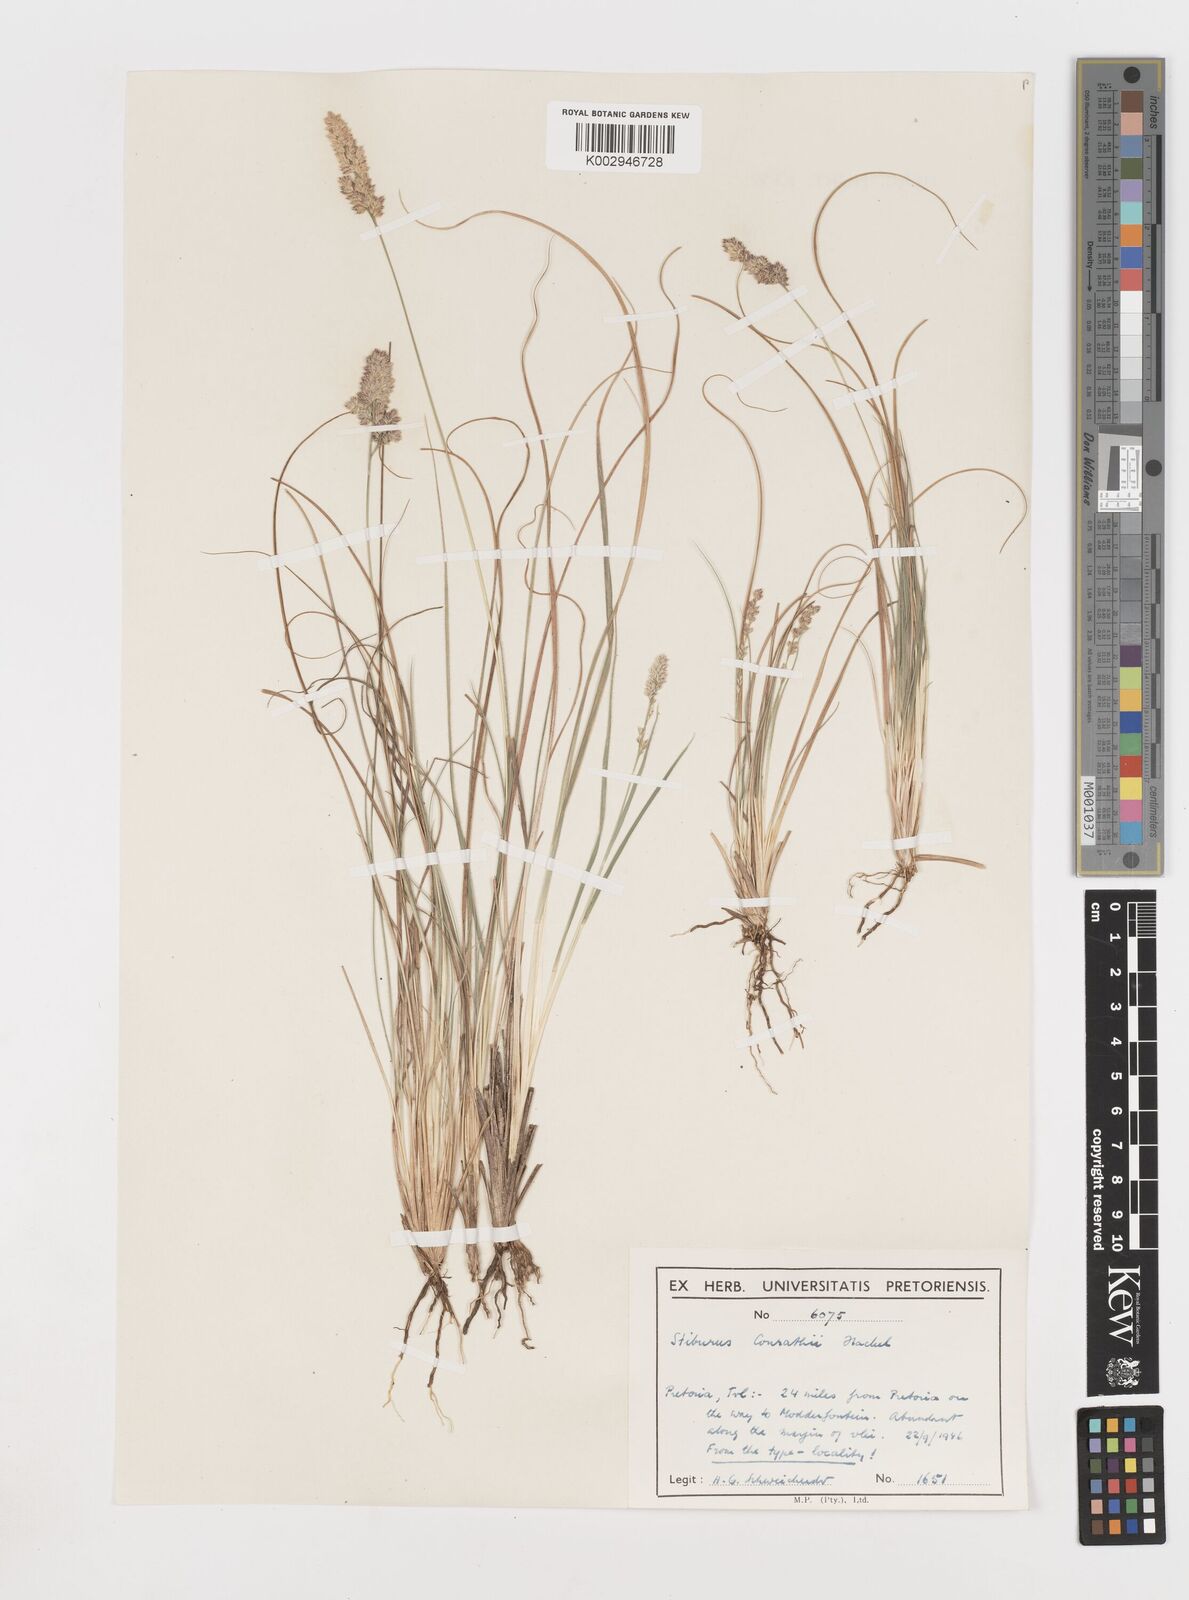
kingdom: Plantae
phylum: Tracheophyta
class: Liliopsida
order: Poales
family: Poaceae
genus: Stiburus
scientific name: Stiburus conrathii
